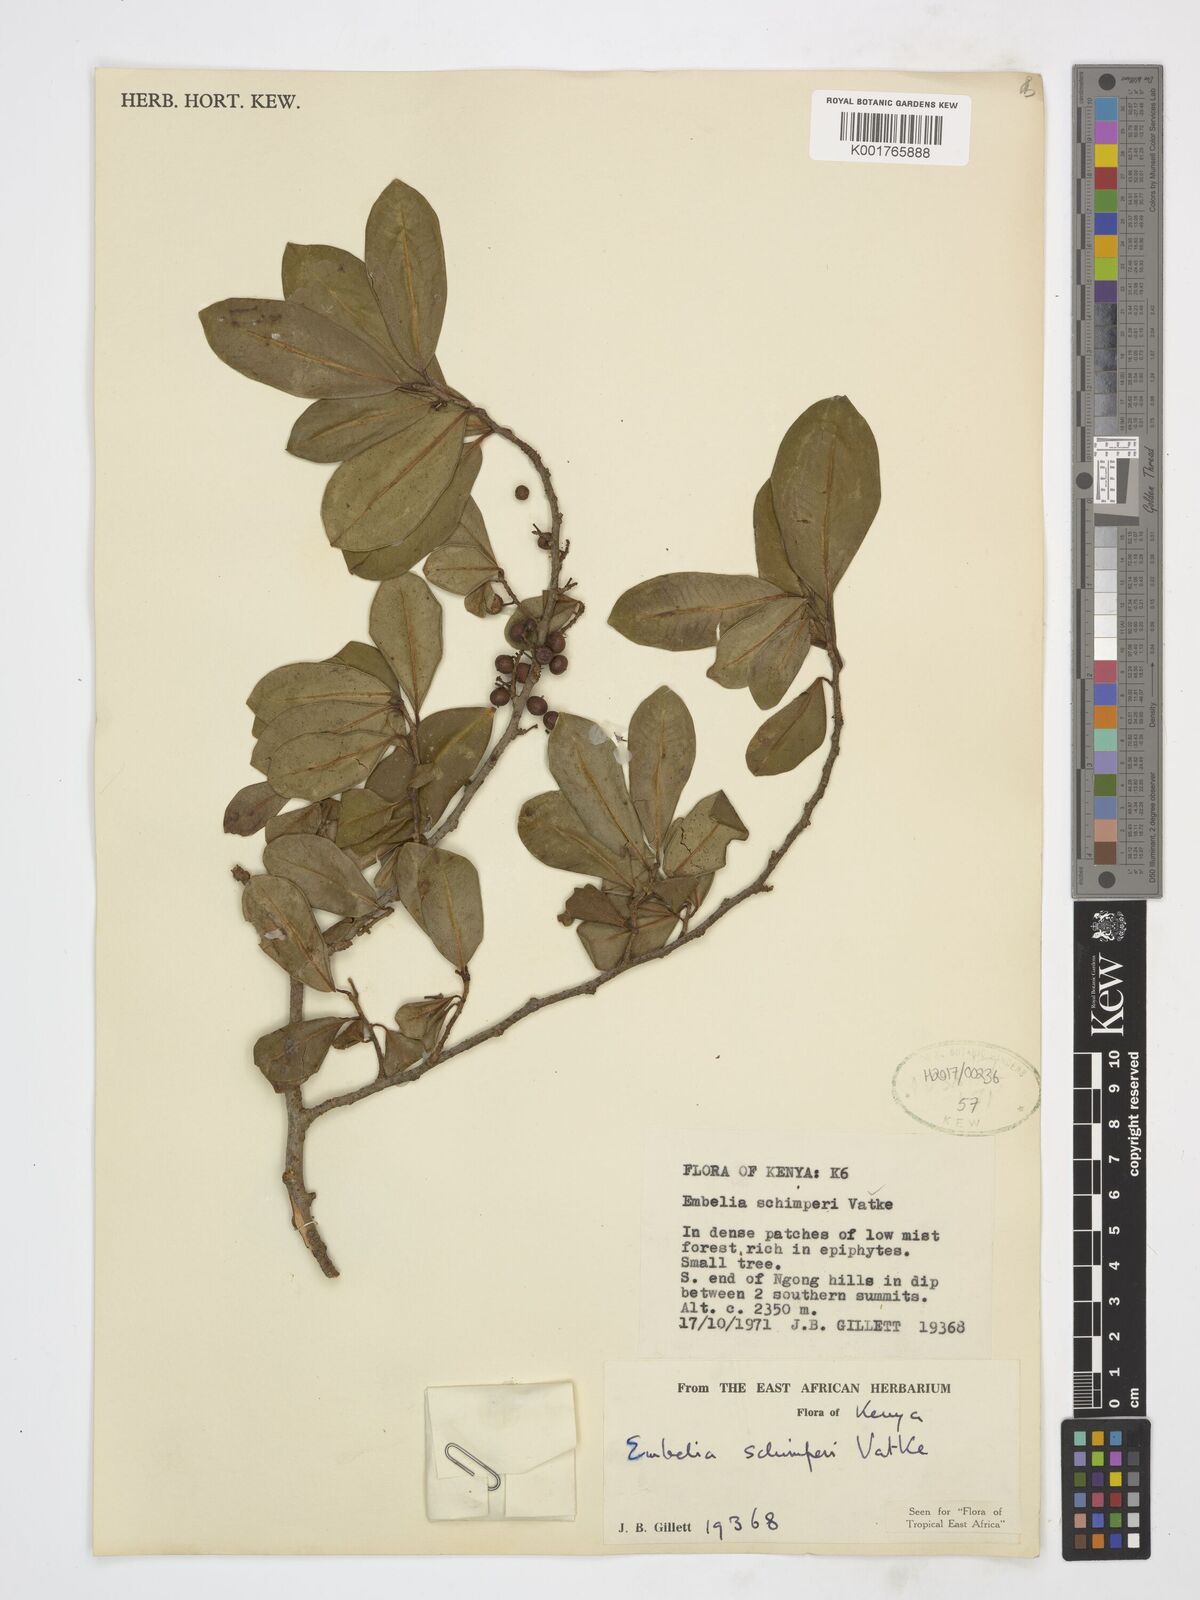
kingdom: Plantae
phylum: Tracheophyta
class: Magnoliopsida
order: Ericales
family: Primulaceae
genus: Embelia
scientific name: Embelia schimperi
